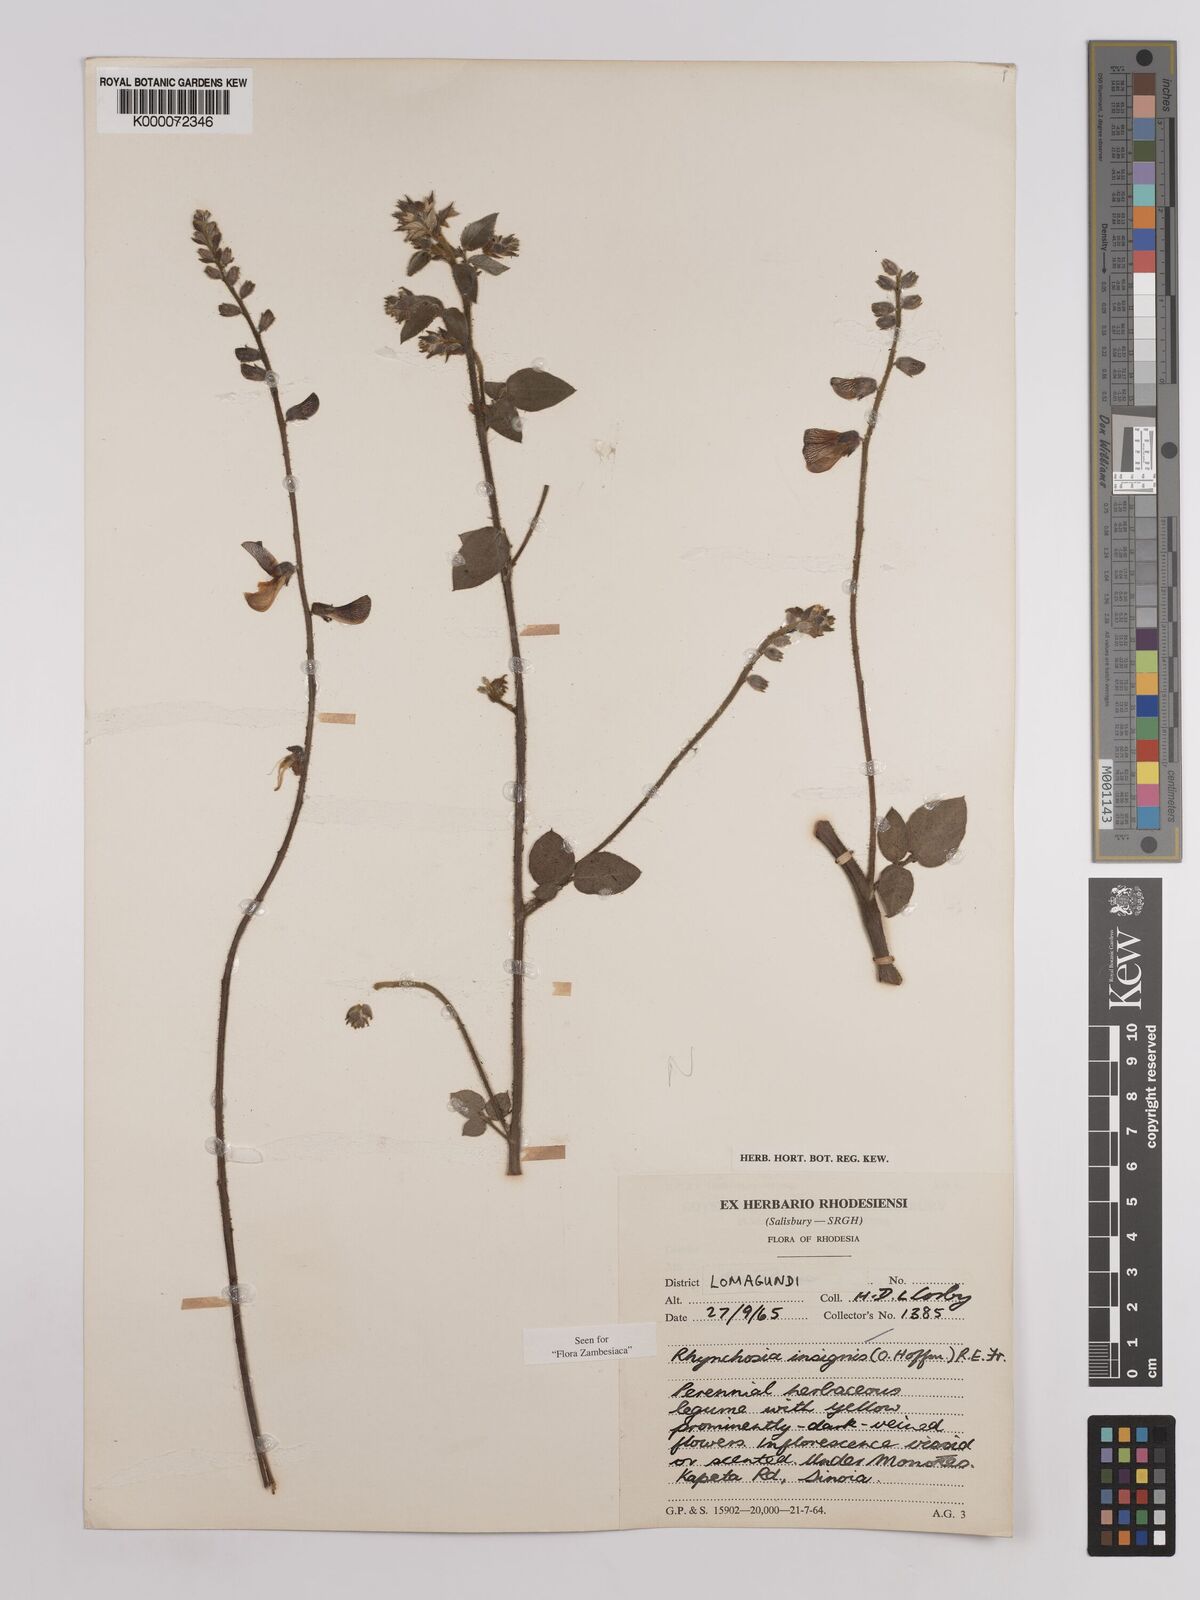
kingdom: Plantae
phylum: Tracheophyta
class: Magnoliopsida
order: Fabales
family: Fabaceae
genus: Rhynchosia
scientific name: Rhynchosia insignis
